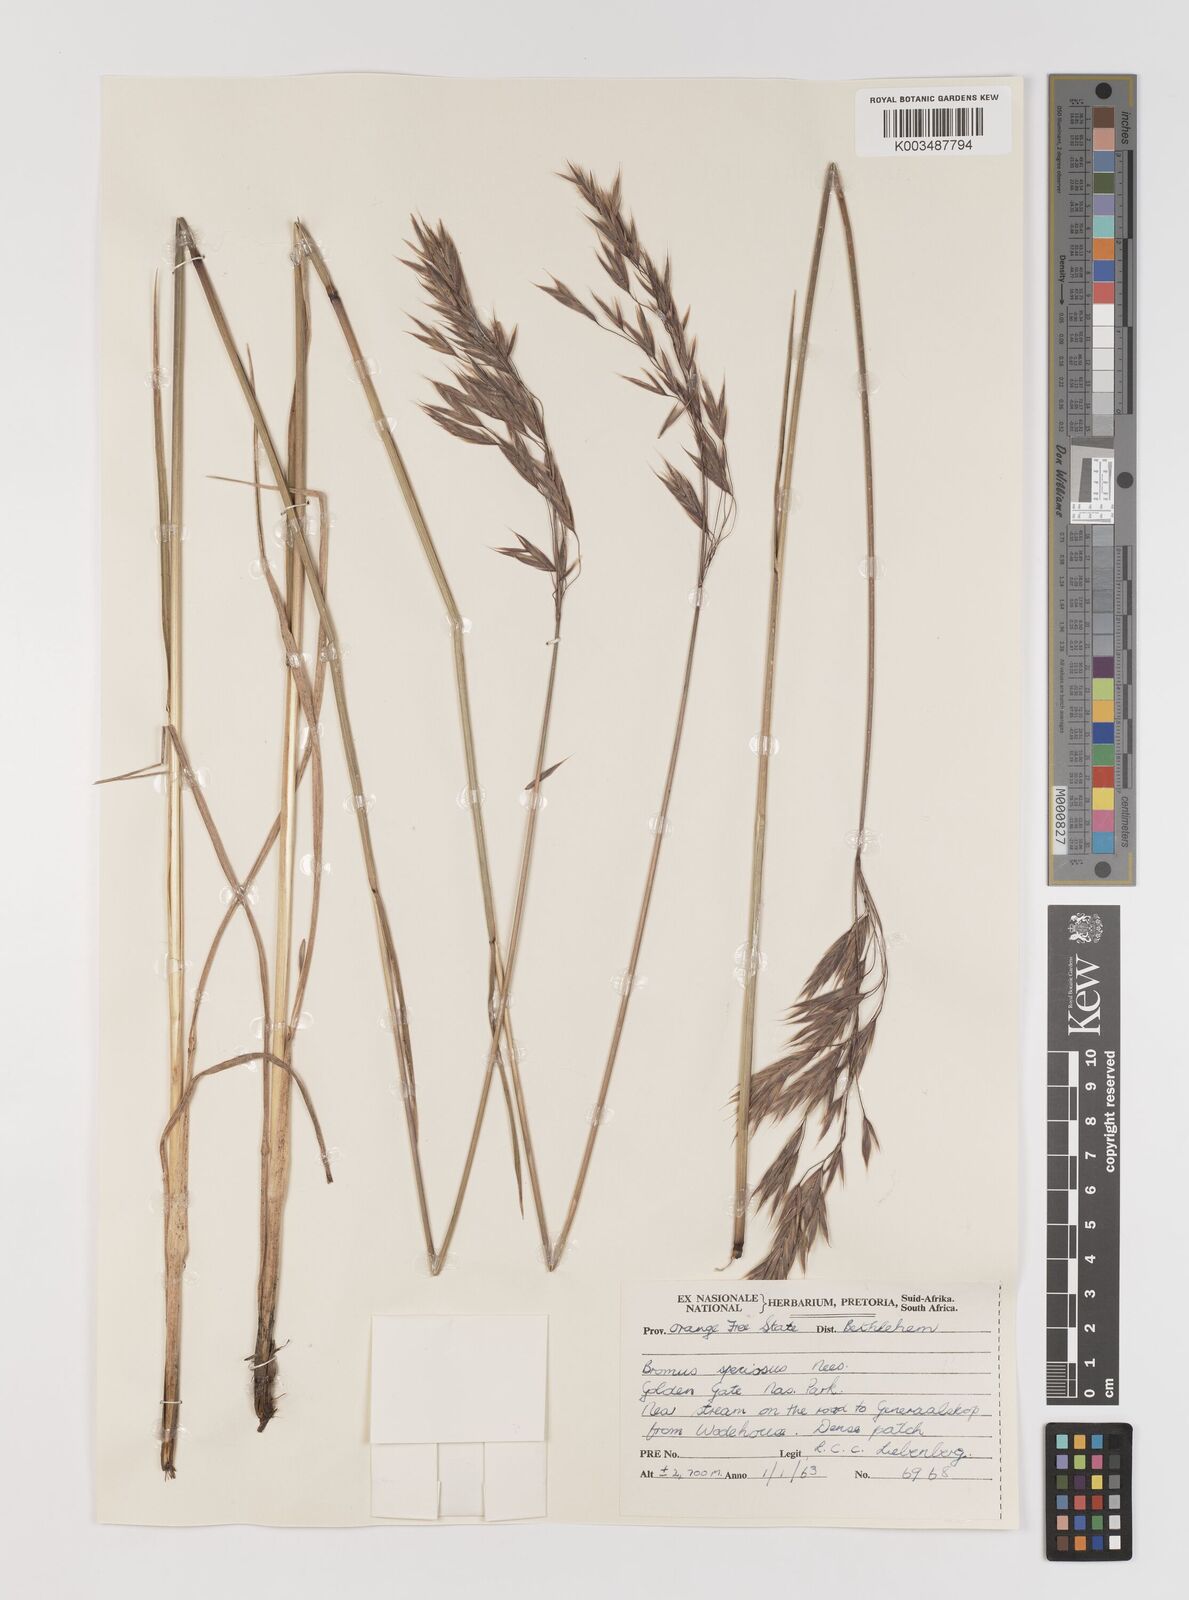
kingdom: Plantae
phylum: Tracheophyta
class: Liliopsida
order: Poales
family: Poaceae
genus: Bromus
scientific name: Bromus speciosus
